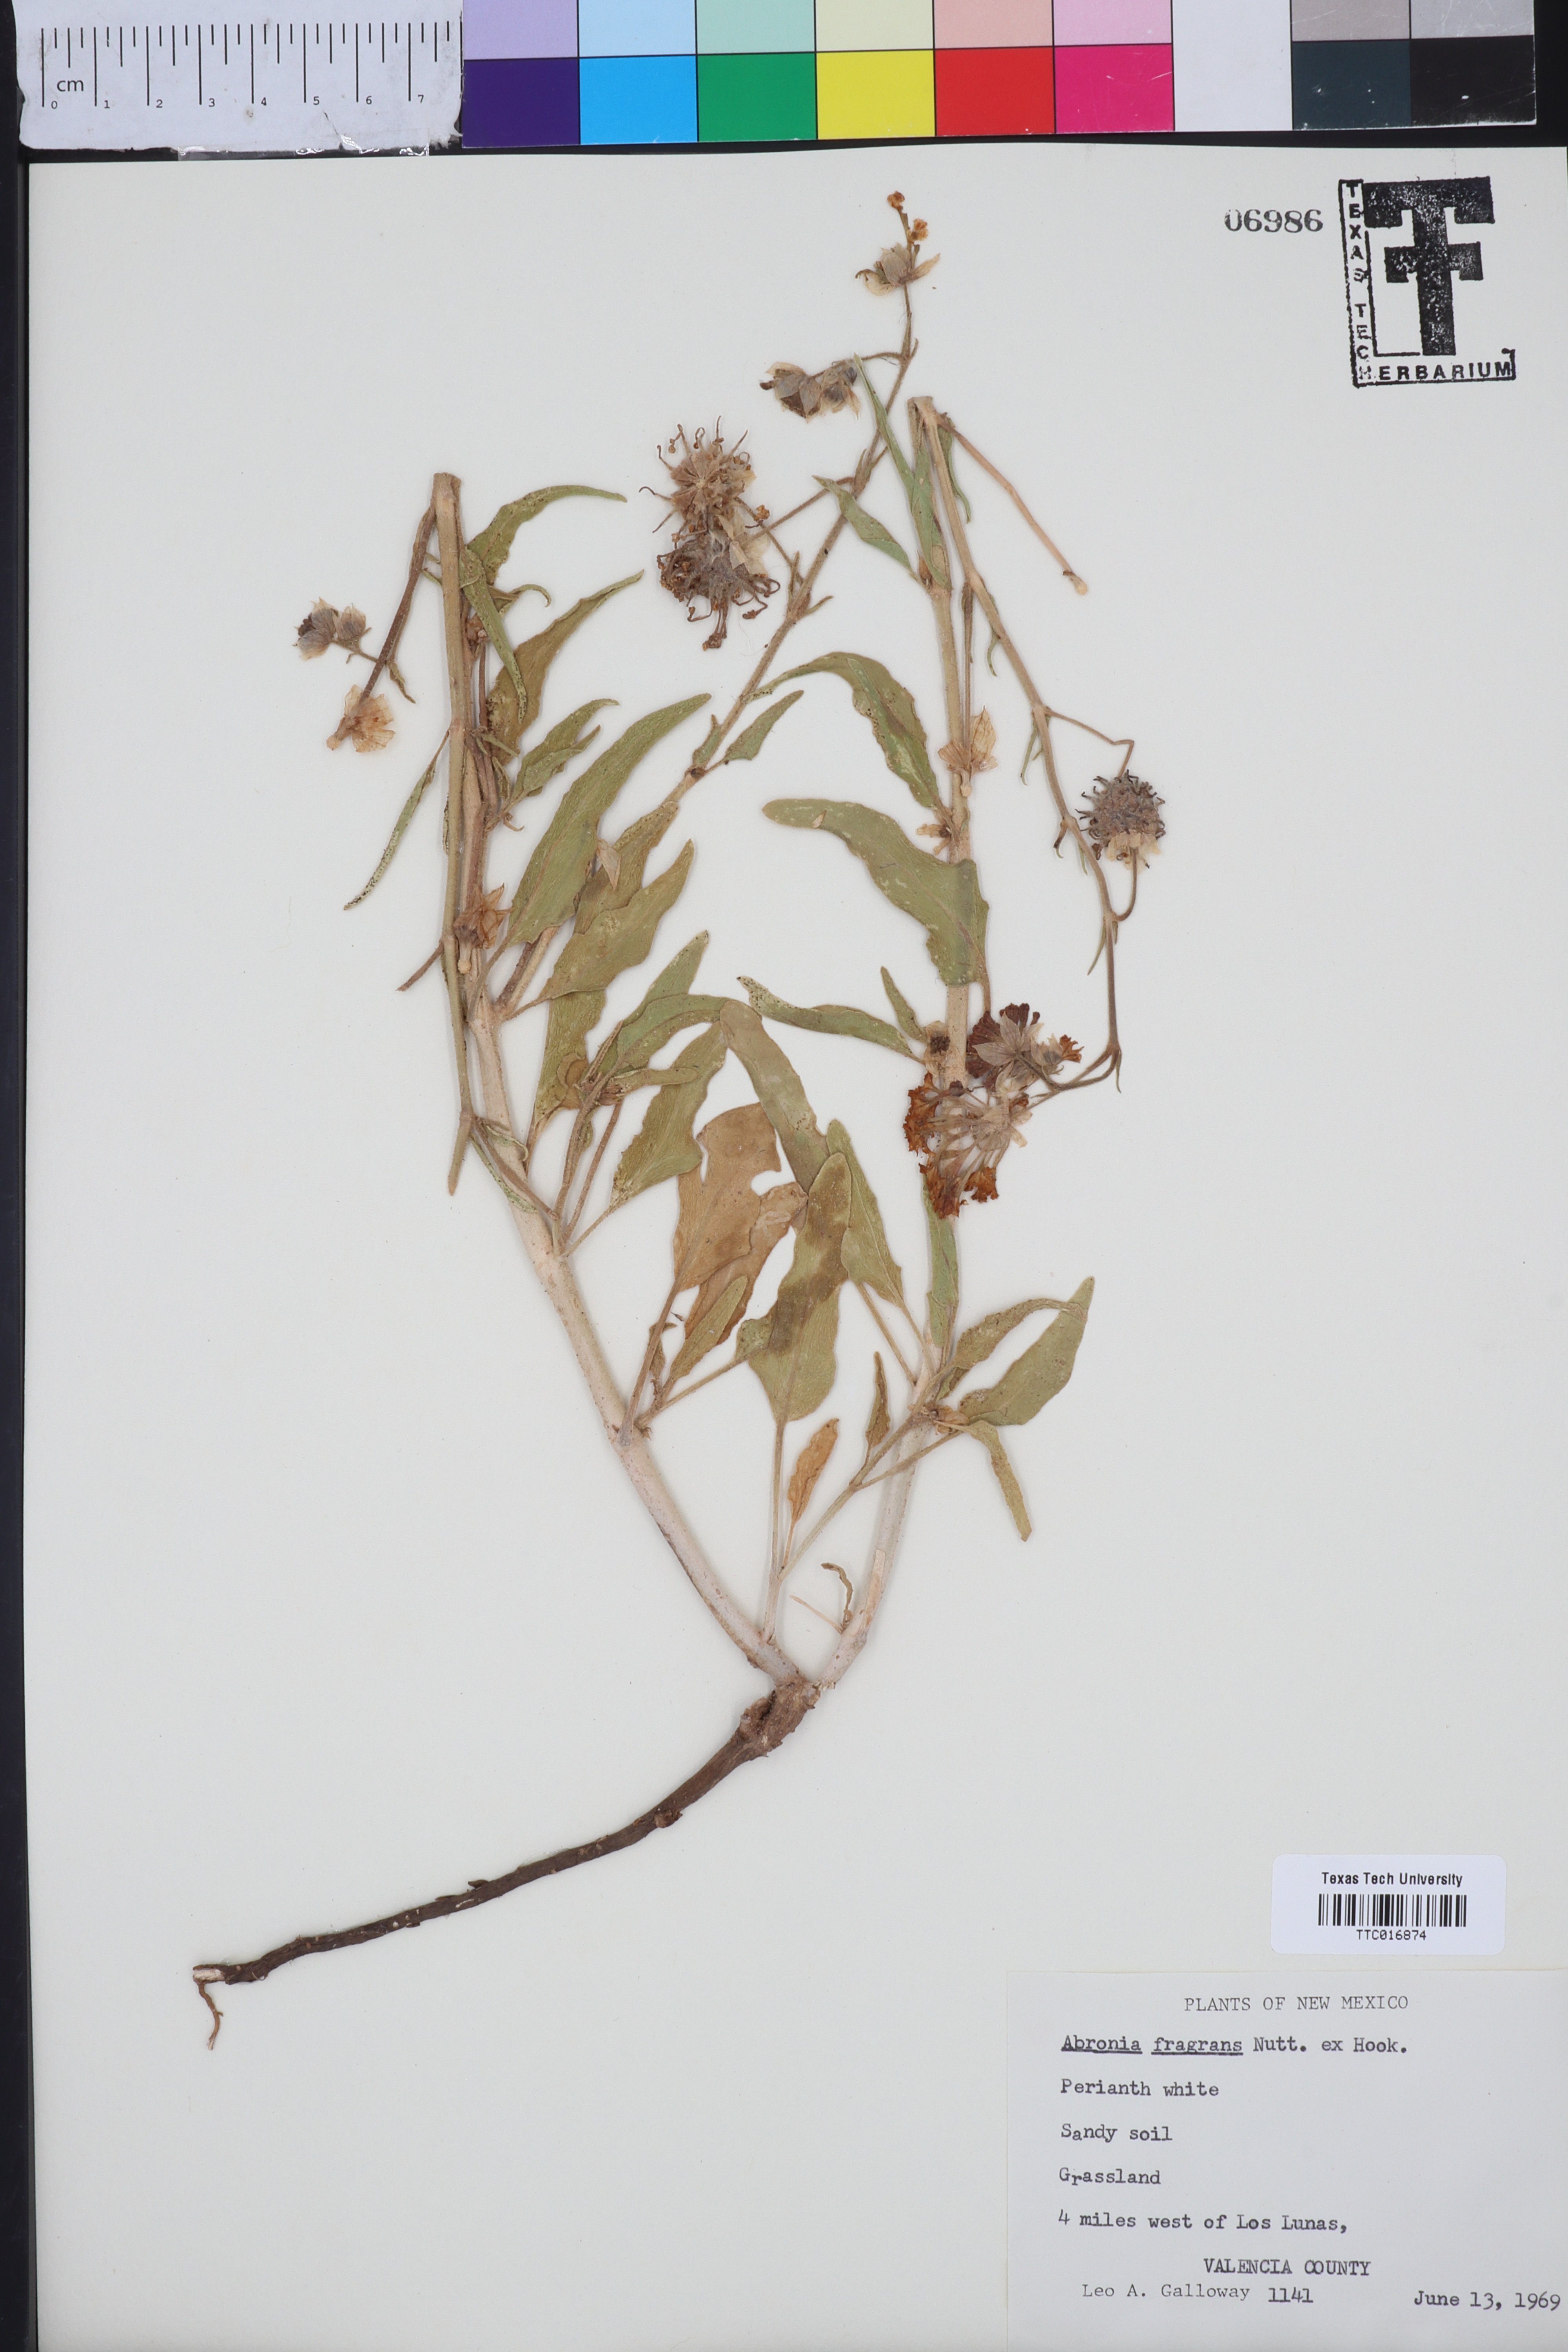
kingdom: Plantae
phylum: Tracheophyta
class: Magnoliopsida
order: Caryophyllales
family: Nyctaginaceae
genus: Abronia
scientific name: Abronia fragrans
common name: Fragrant sand-verbena
